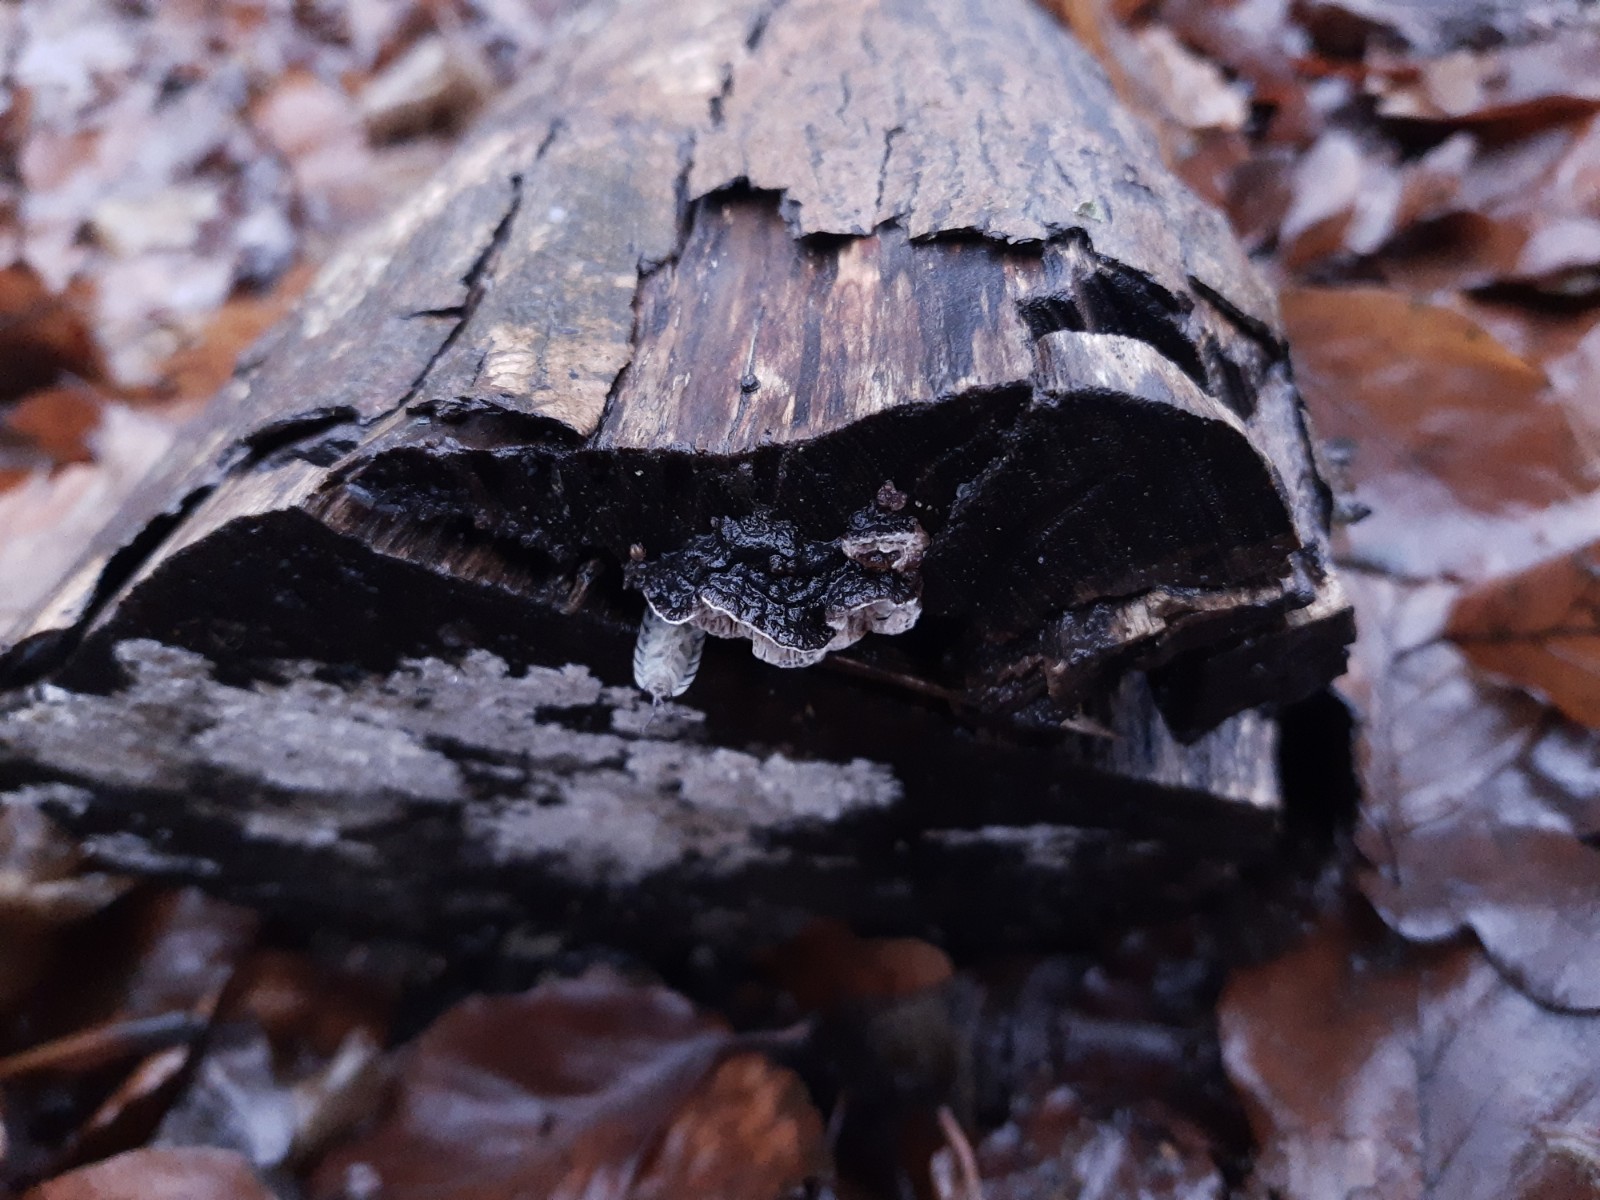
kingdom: Fungi
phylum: Basidiomycota
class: Agaricomycetes
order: Polyporales
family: Polyporaceae
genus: Podofomes
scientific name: Podofomes mollis
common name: blød begporesvamp
